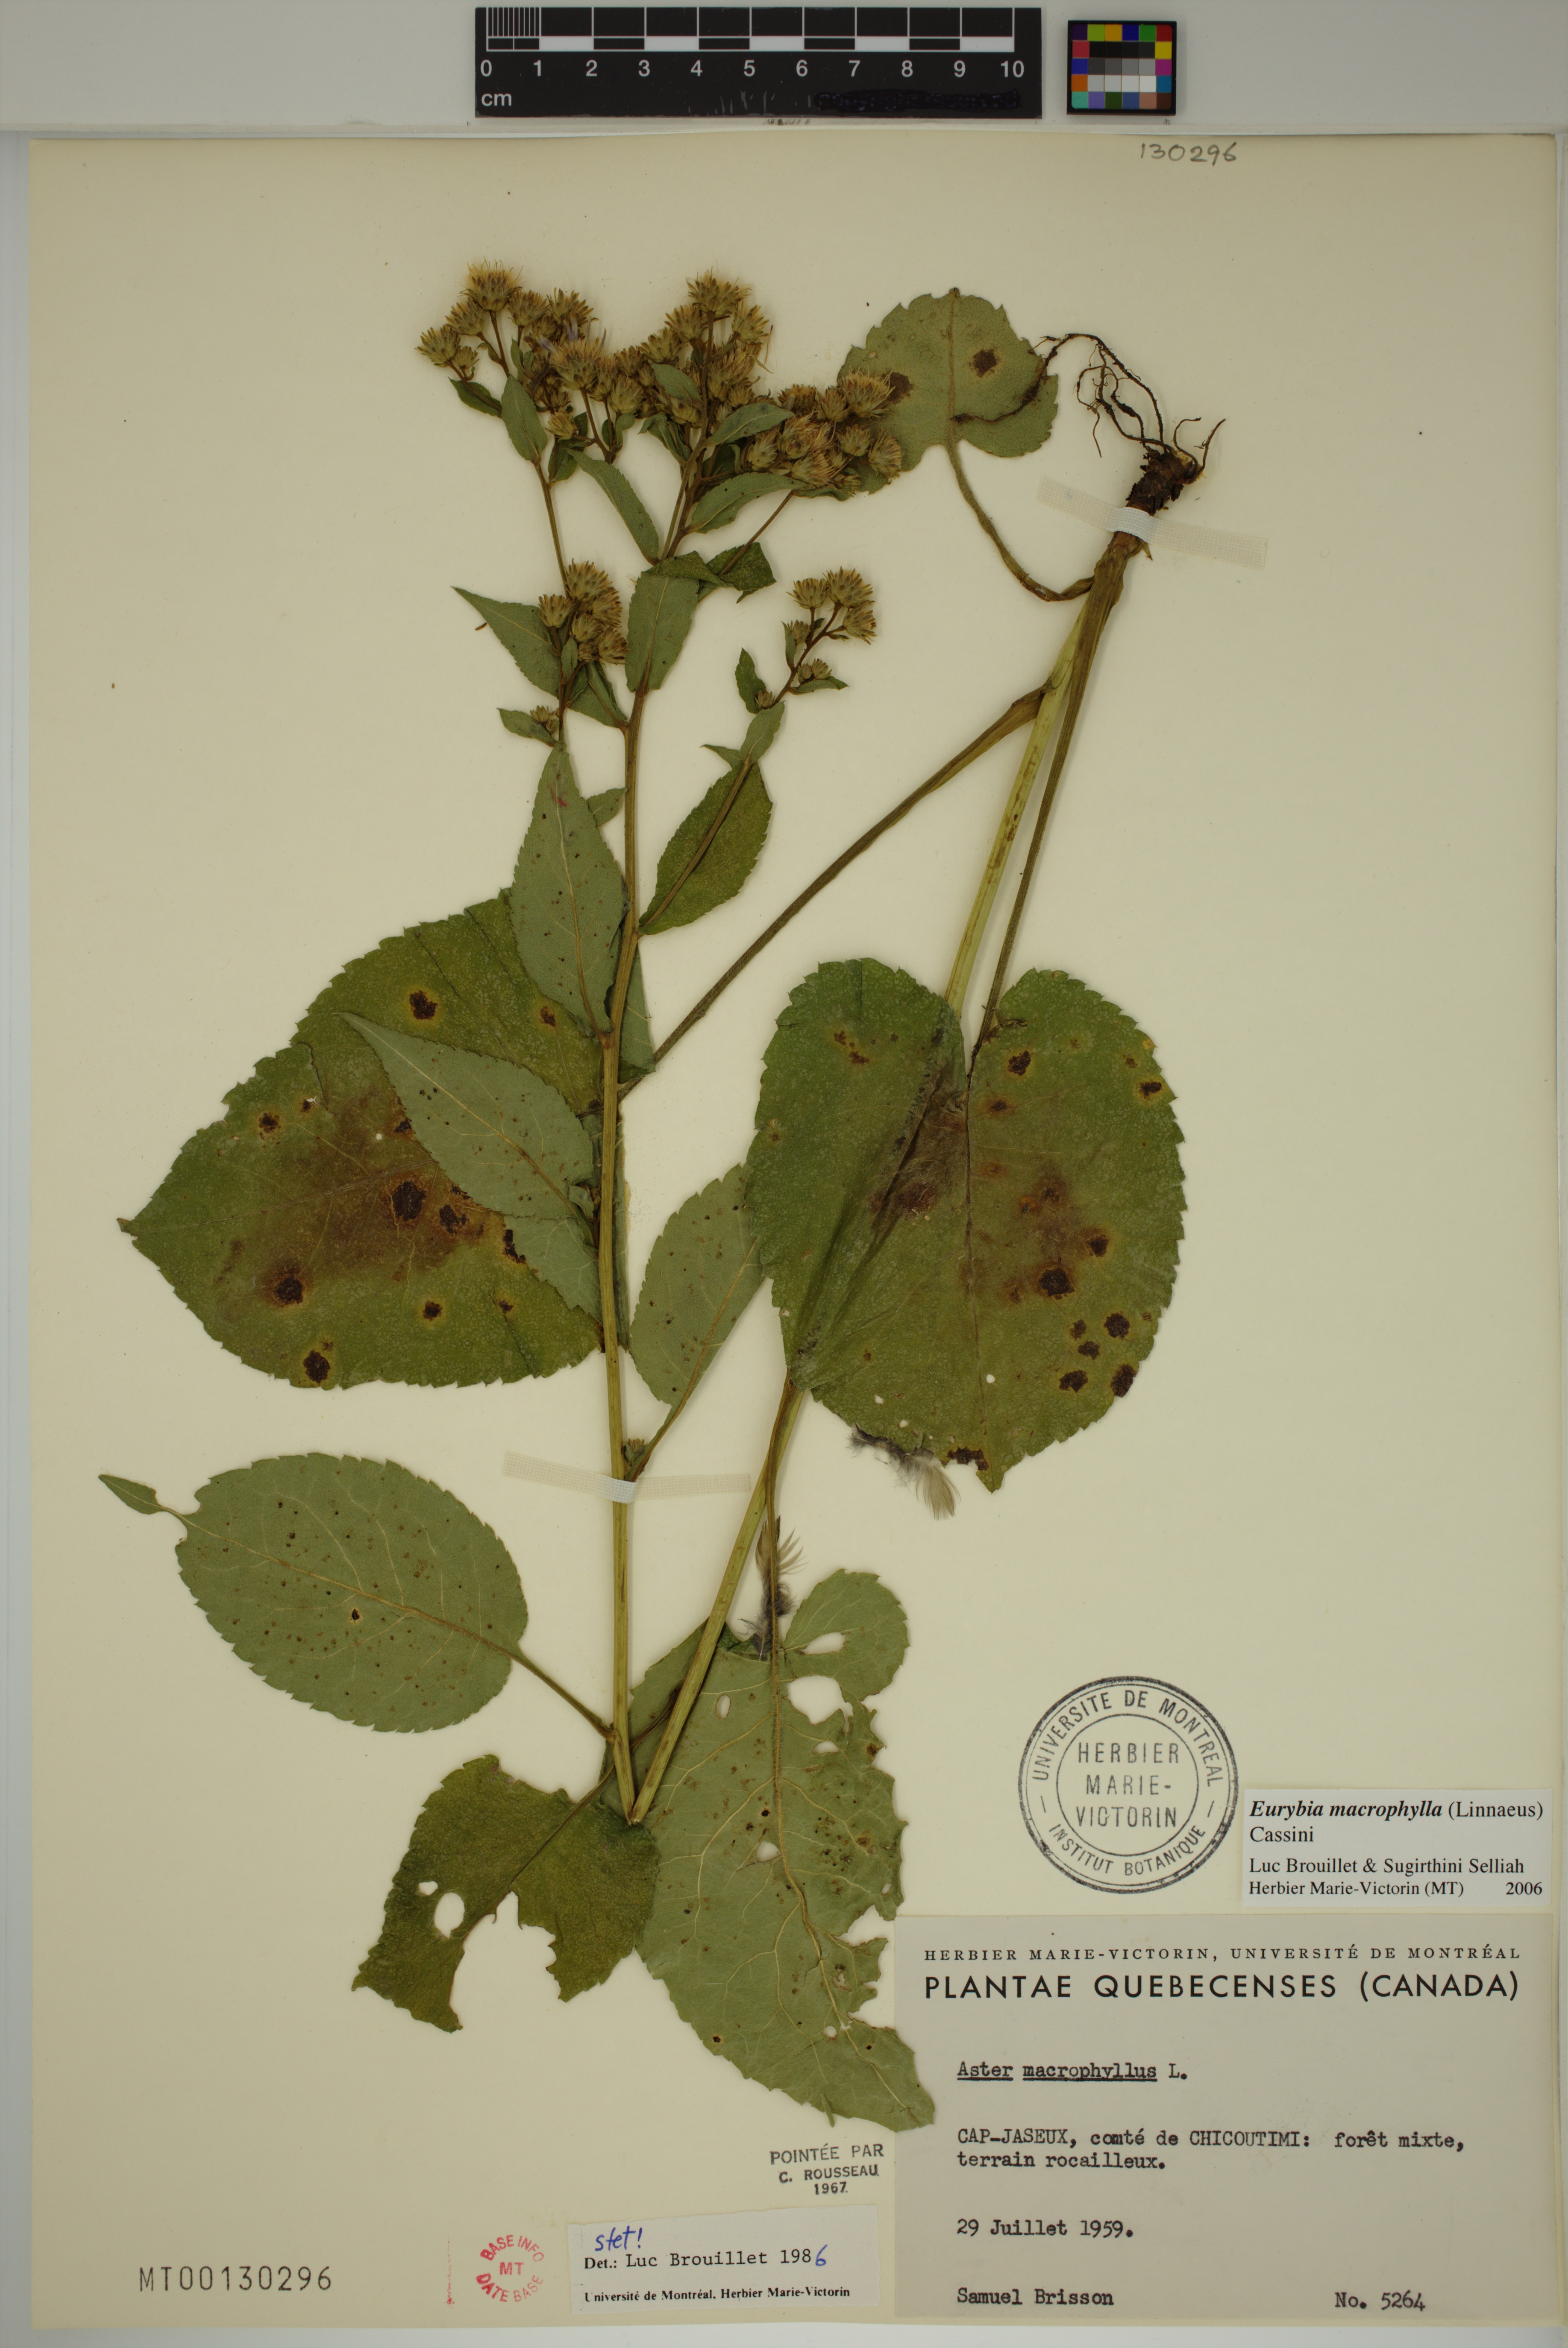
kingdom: Plantae
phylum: Tracheophyta
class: Magnoliopsida
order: Asterales
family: Asteraceae
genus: Eurybia
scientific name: Eurybia macrophylla
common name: Big-leaved aster
